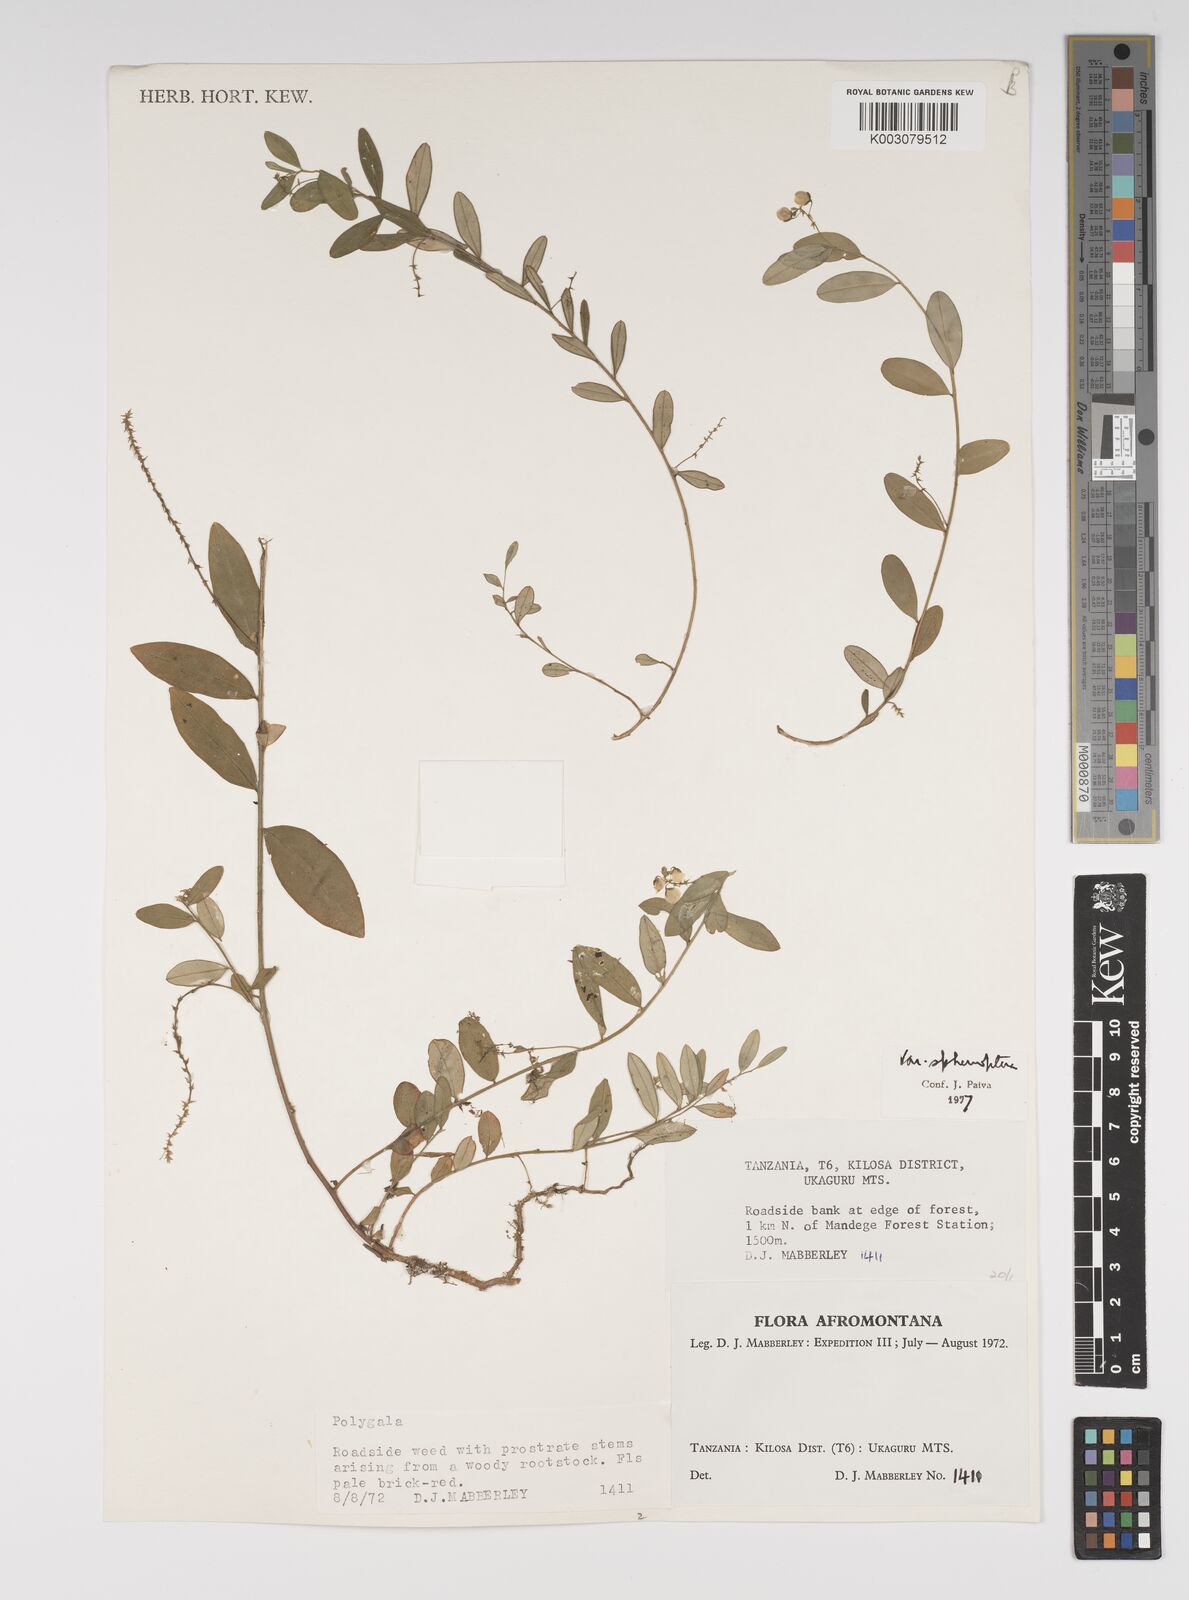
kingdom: Plantae
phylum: Tracheophyta
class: Magnoliopsida
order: Fabales
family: Polygalaceae
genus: Polygala
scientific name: Polygala sphenoptera
